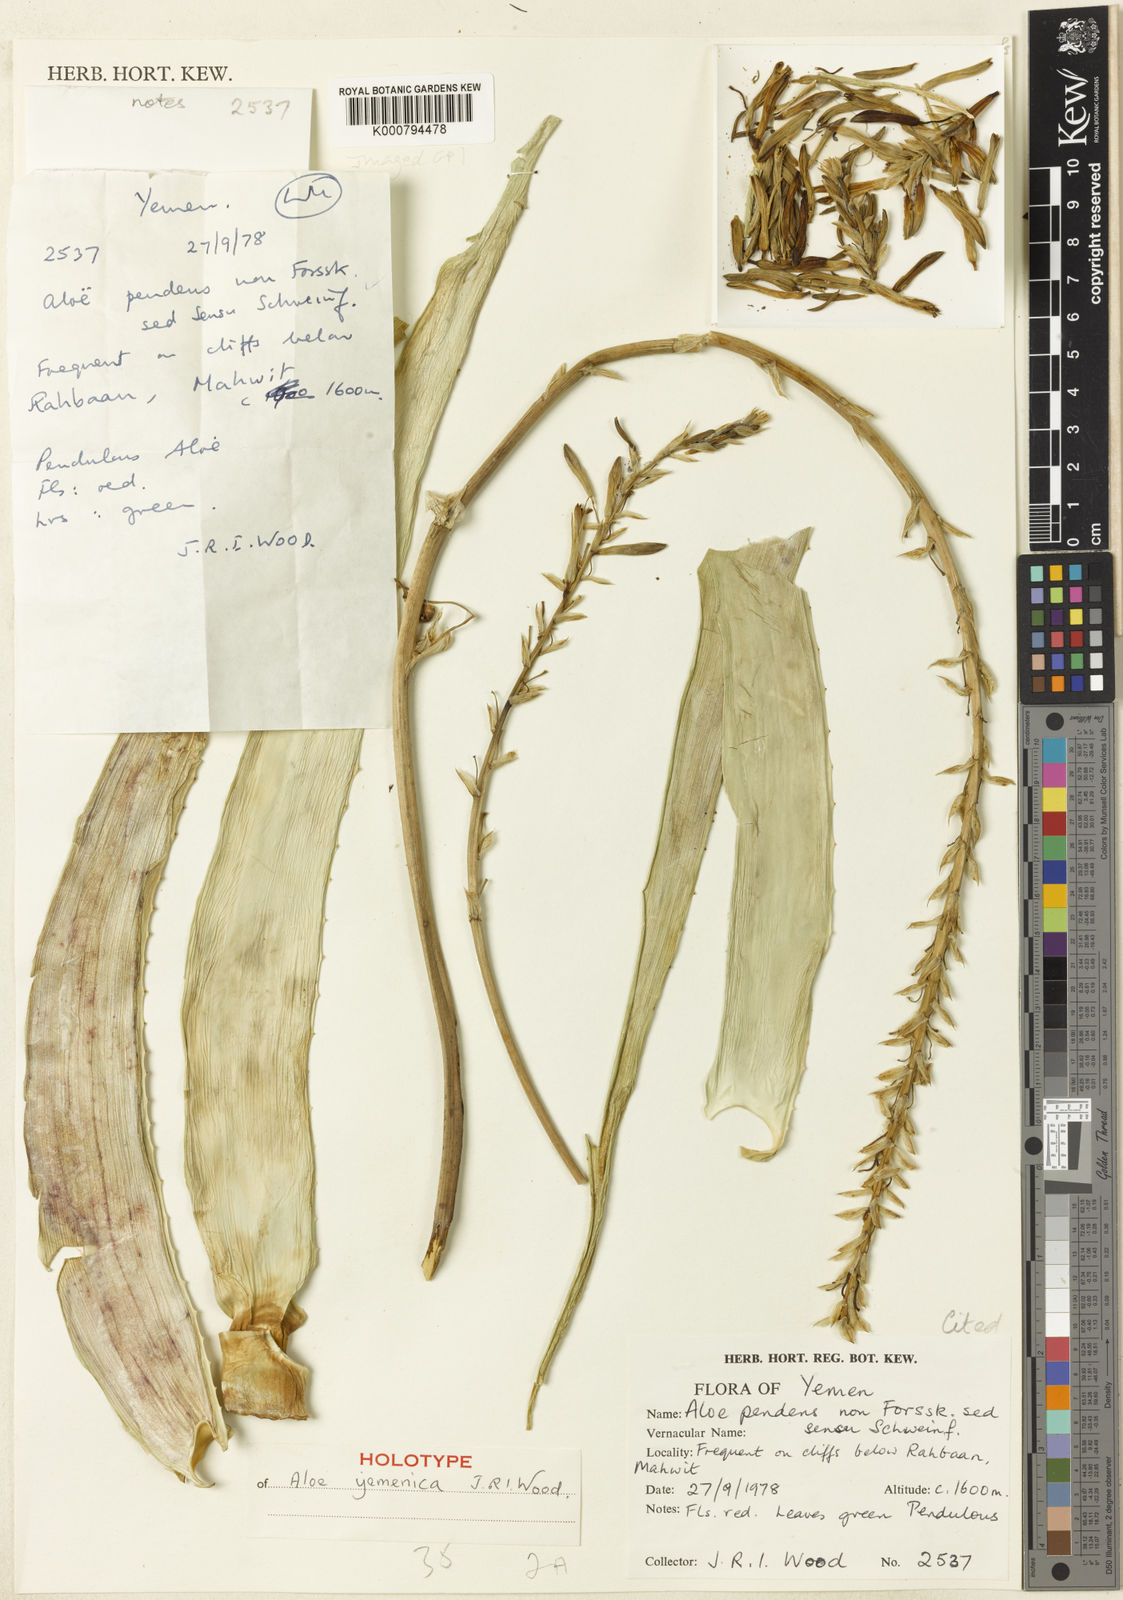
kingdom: Plantae
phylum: Tracheophyta
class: Liliopsida
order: Asparagales
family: Asphodelaceae
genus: Aloe
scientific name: Aloe yemenica
